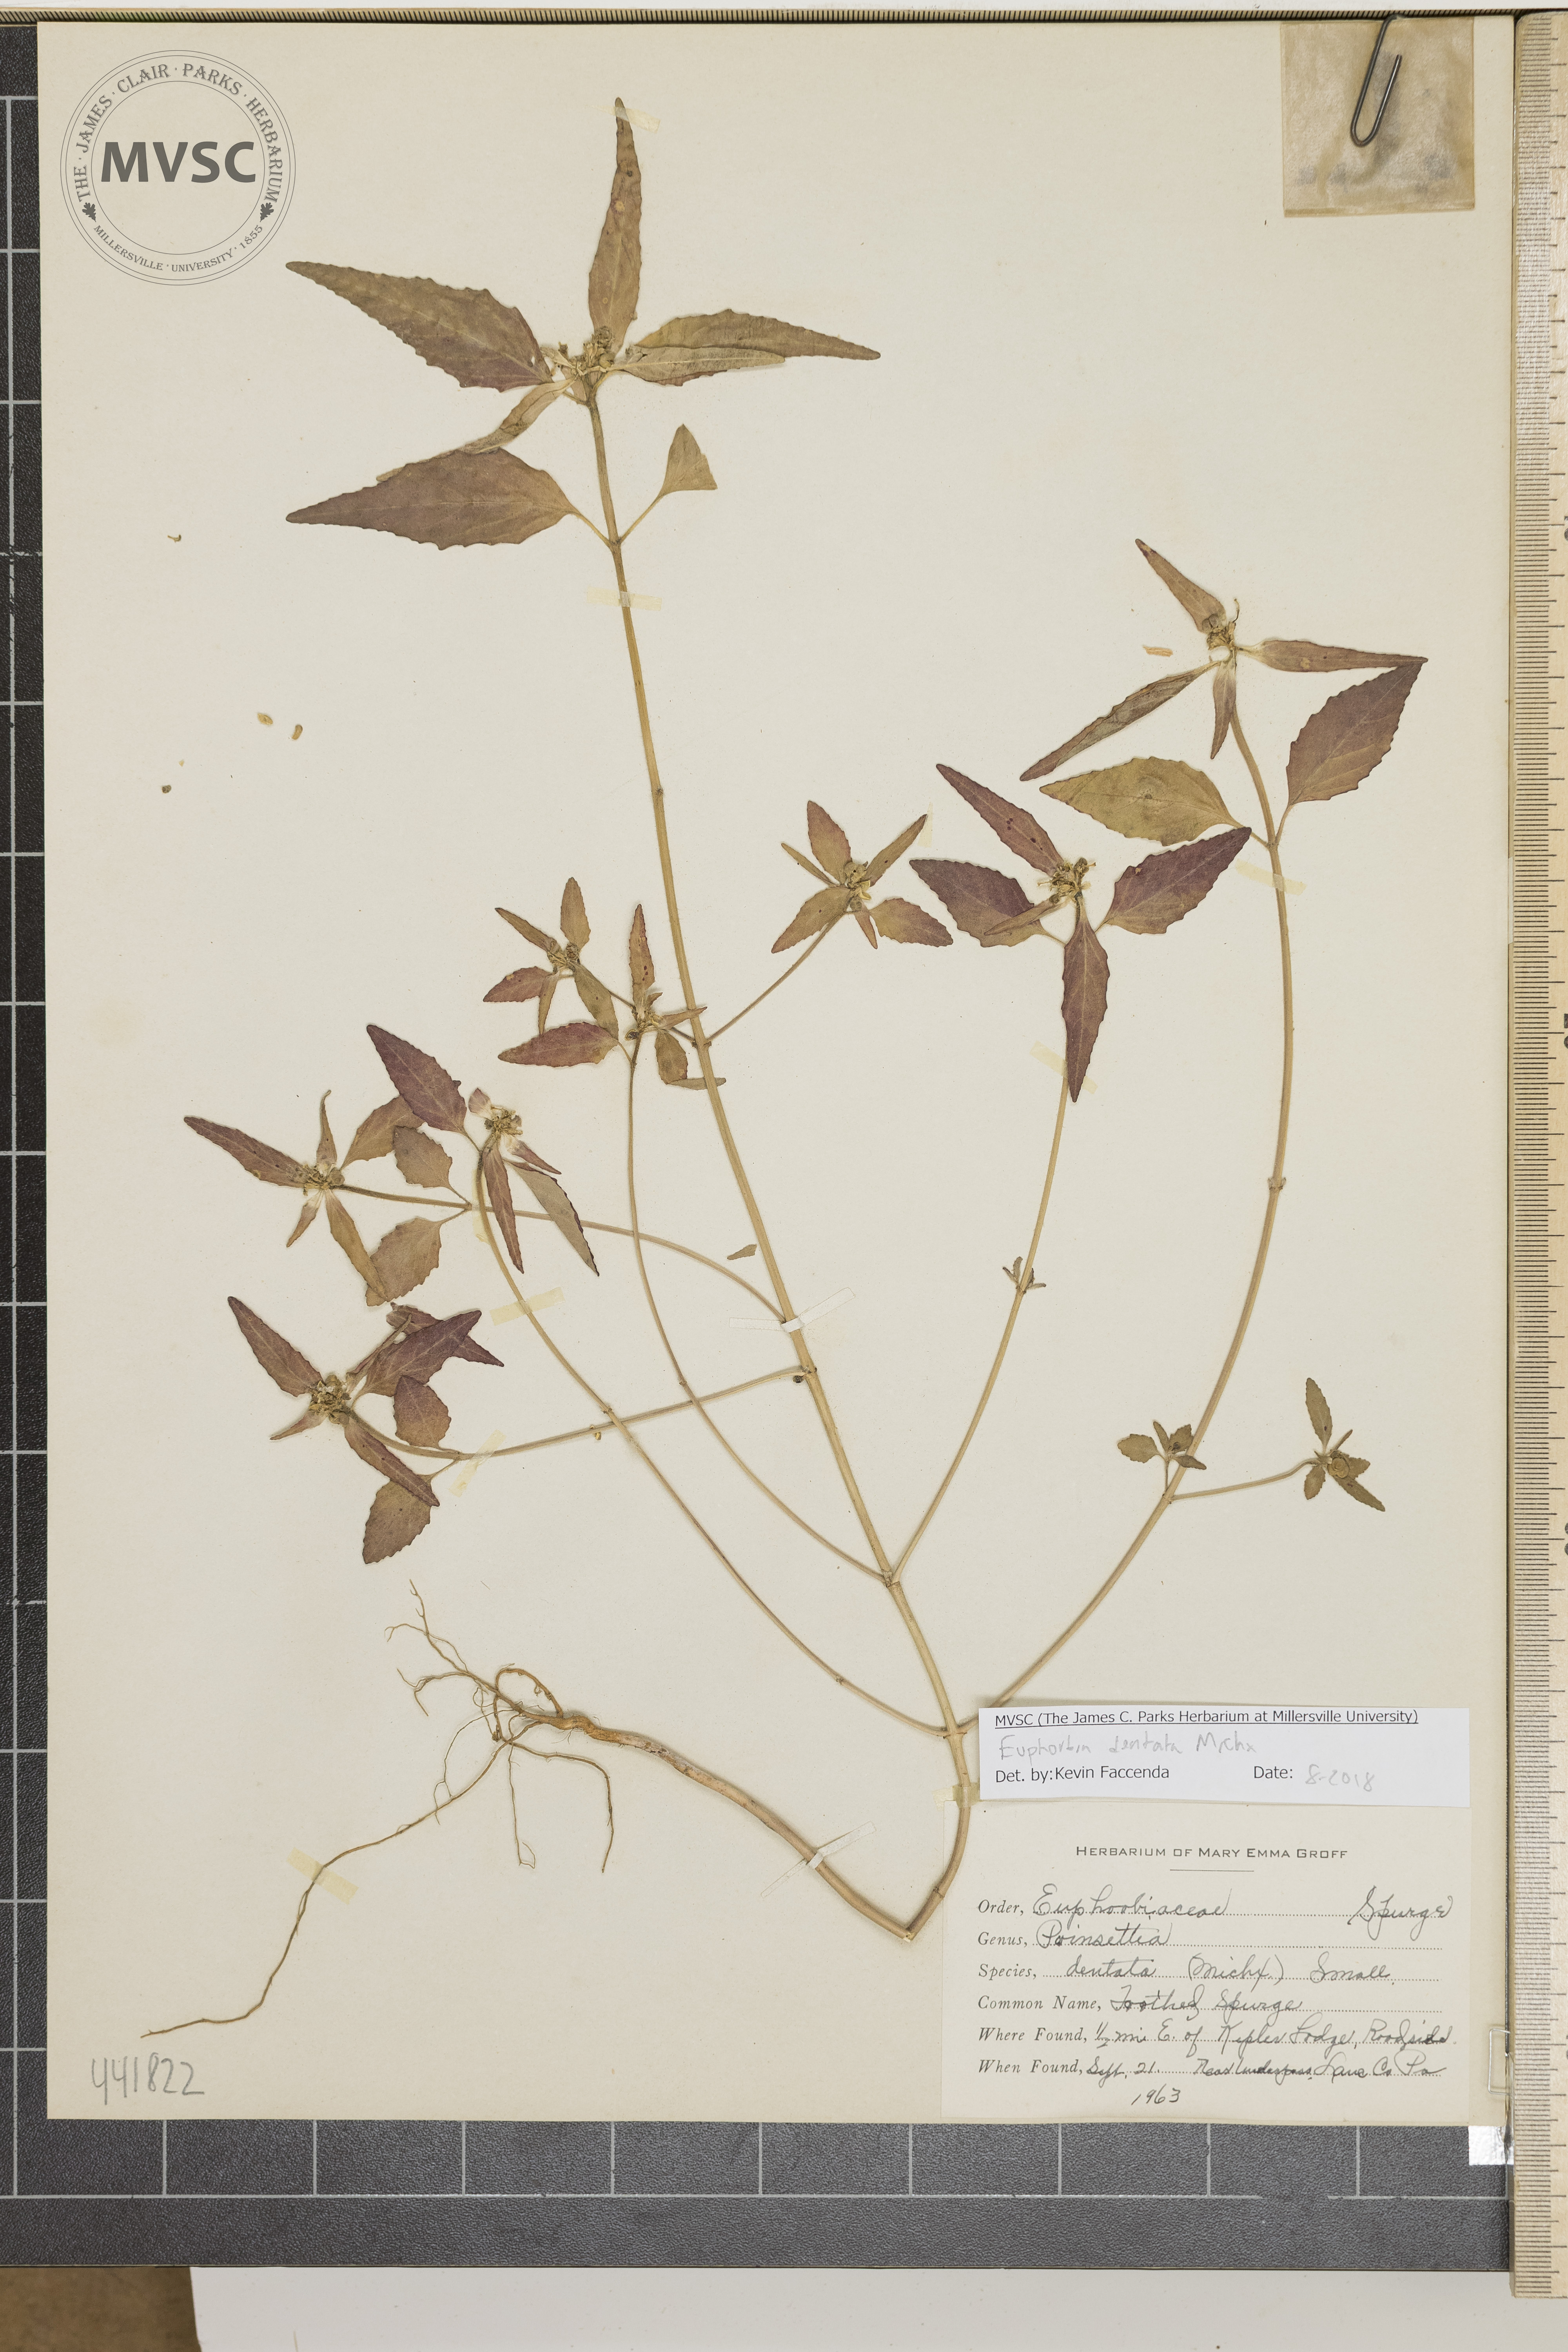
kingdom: Plantae
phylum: Tracheophyta
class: Magnoliopsida
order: Malpighiales
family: Euphorbiaceae
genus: Euphorbia
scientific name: Euphorbia dentata
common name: Toothed spurge
